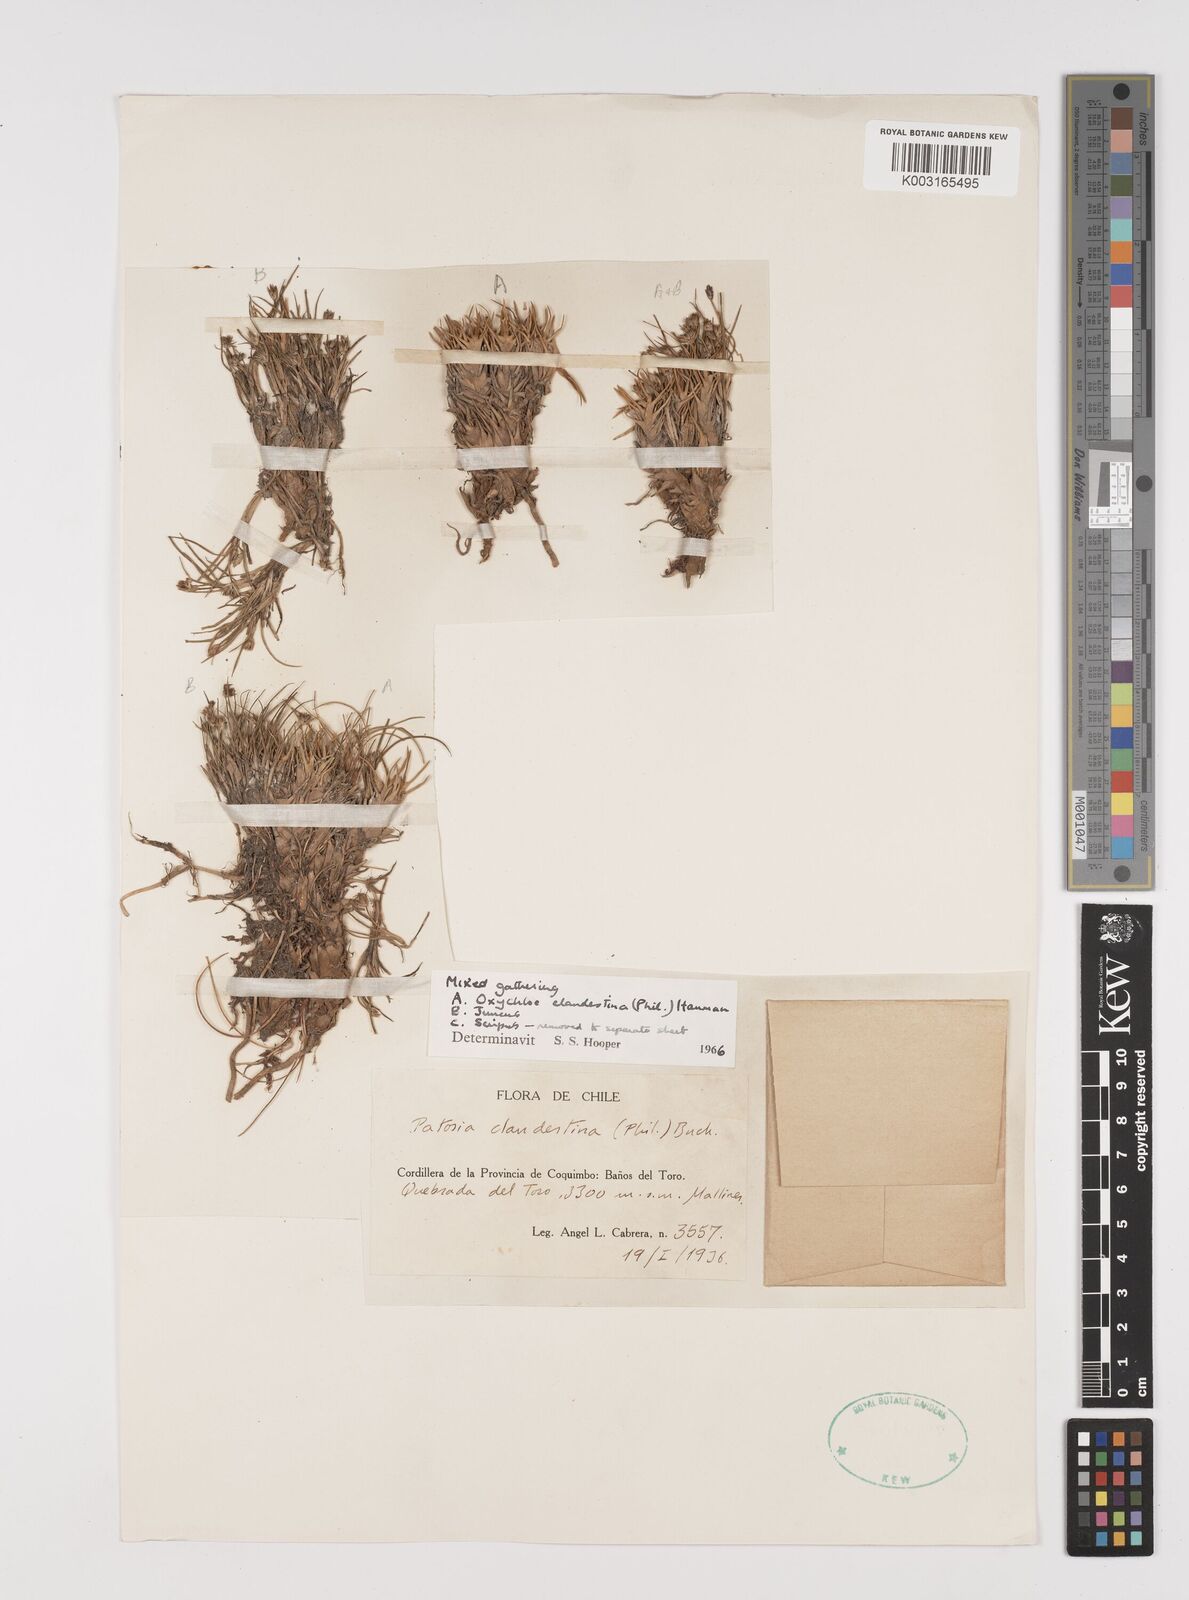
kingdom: Plantae
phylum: Tracheophyta
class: Liliopsida
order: Poales
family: Juncaceae
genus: Patosia
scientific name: Patosia clandestina
